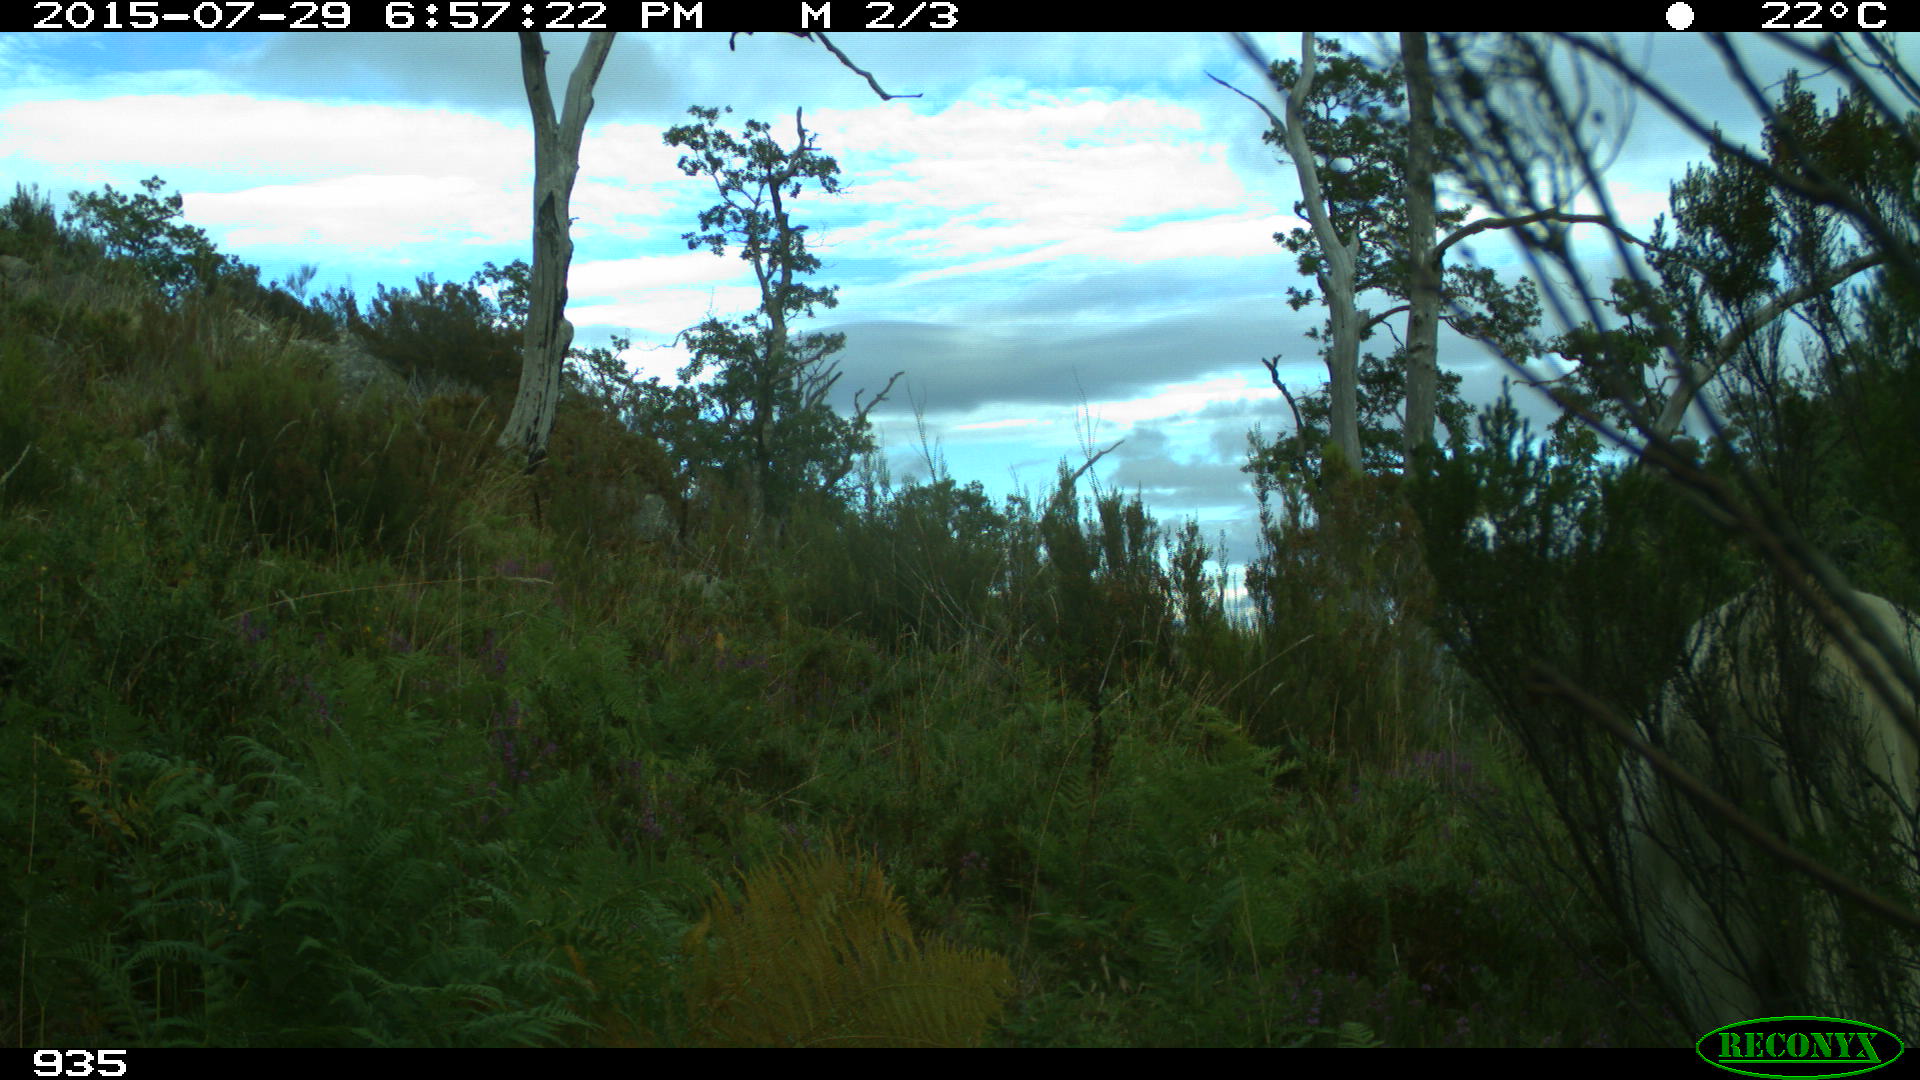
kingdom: Animalia
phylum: Chordata
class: Mammalia
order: Artiodactyla
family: Bovidae
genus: Bos
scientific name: Bos taurus
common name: Domesticated cattle
